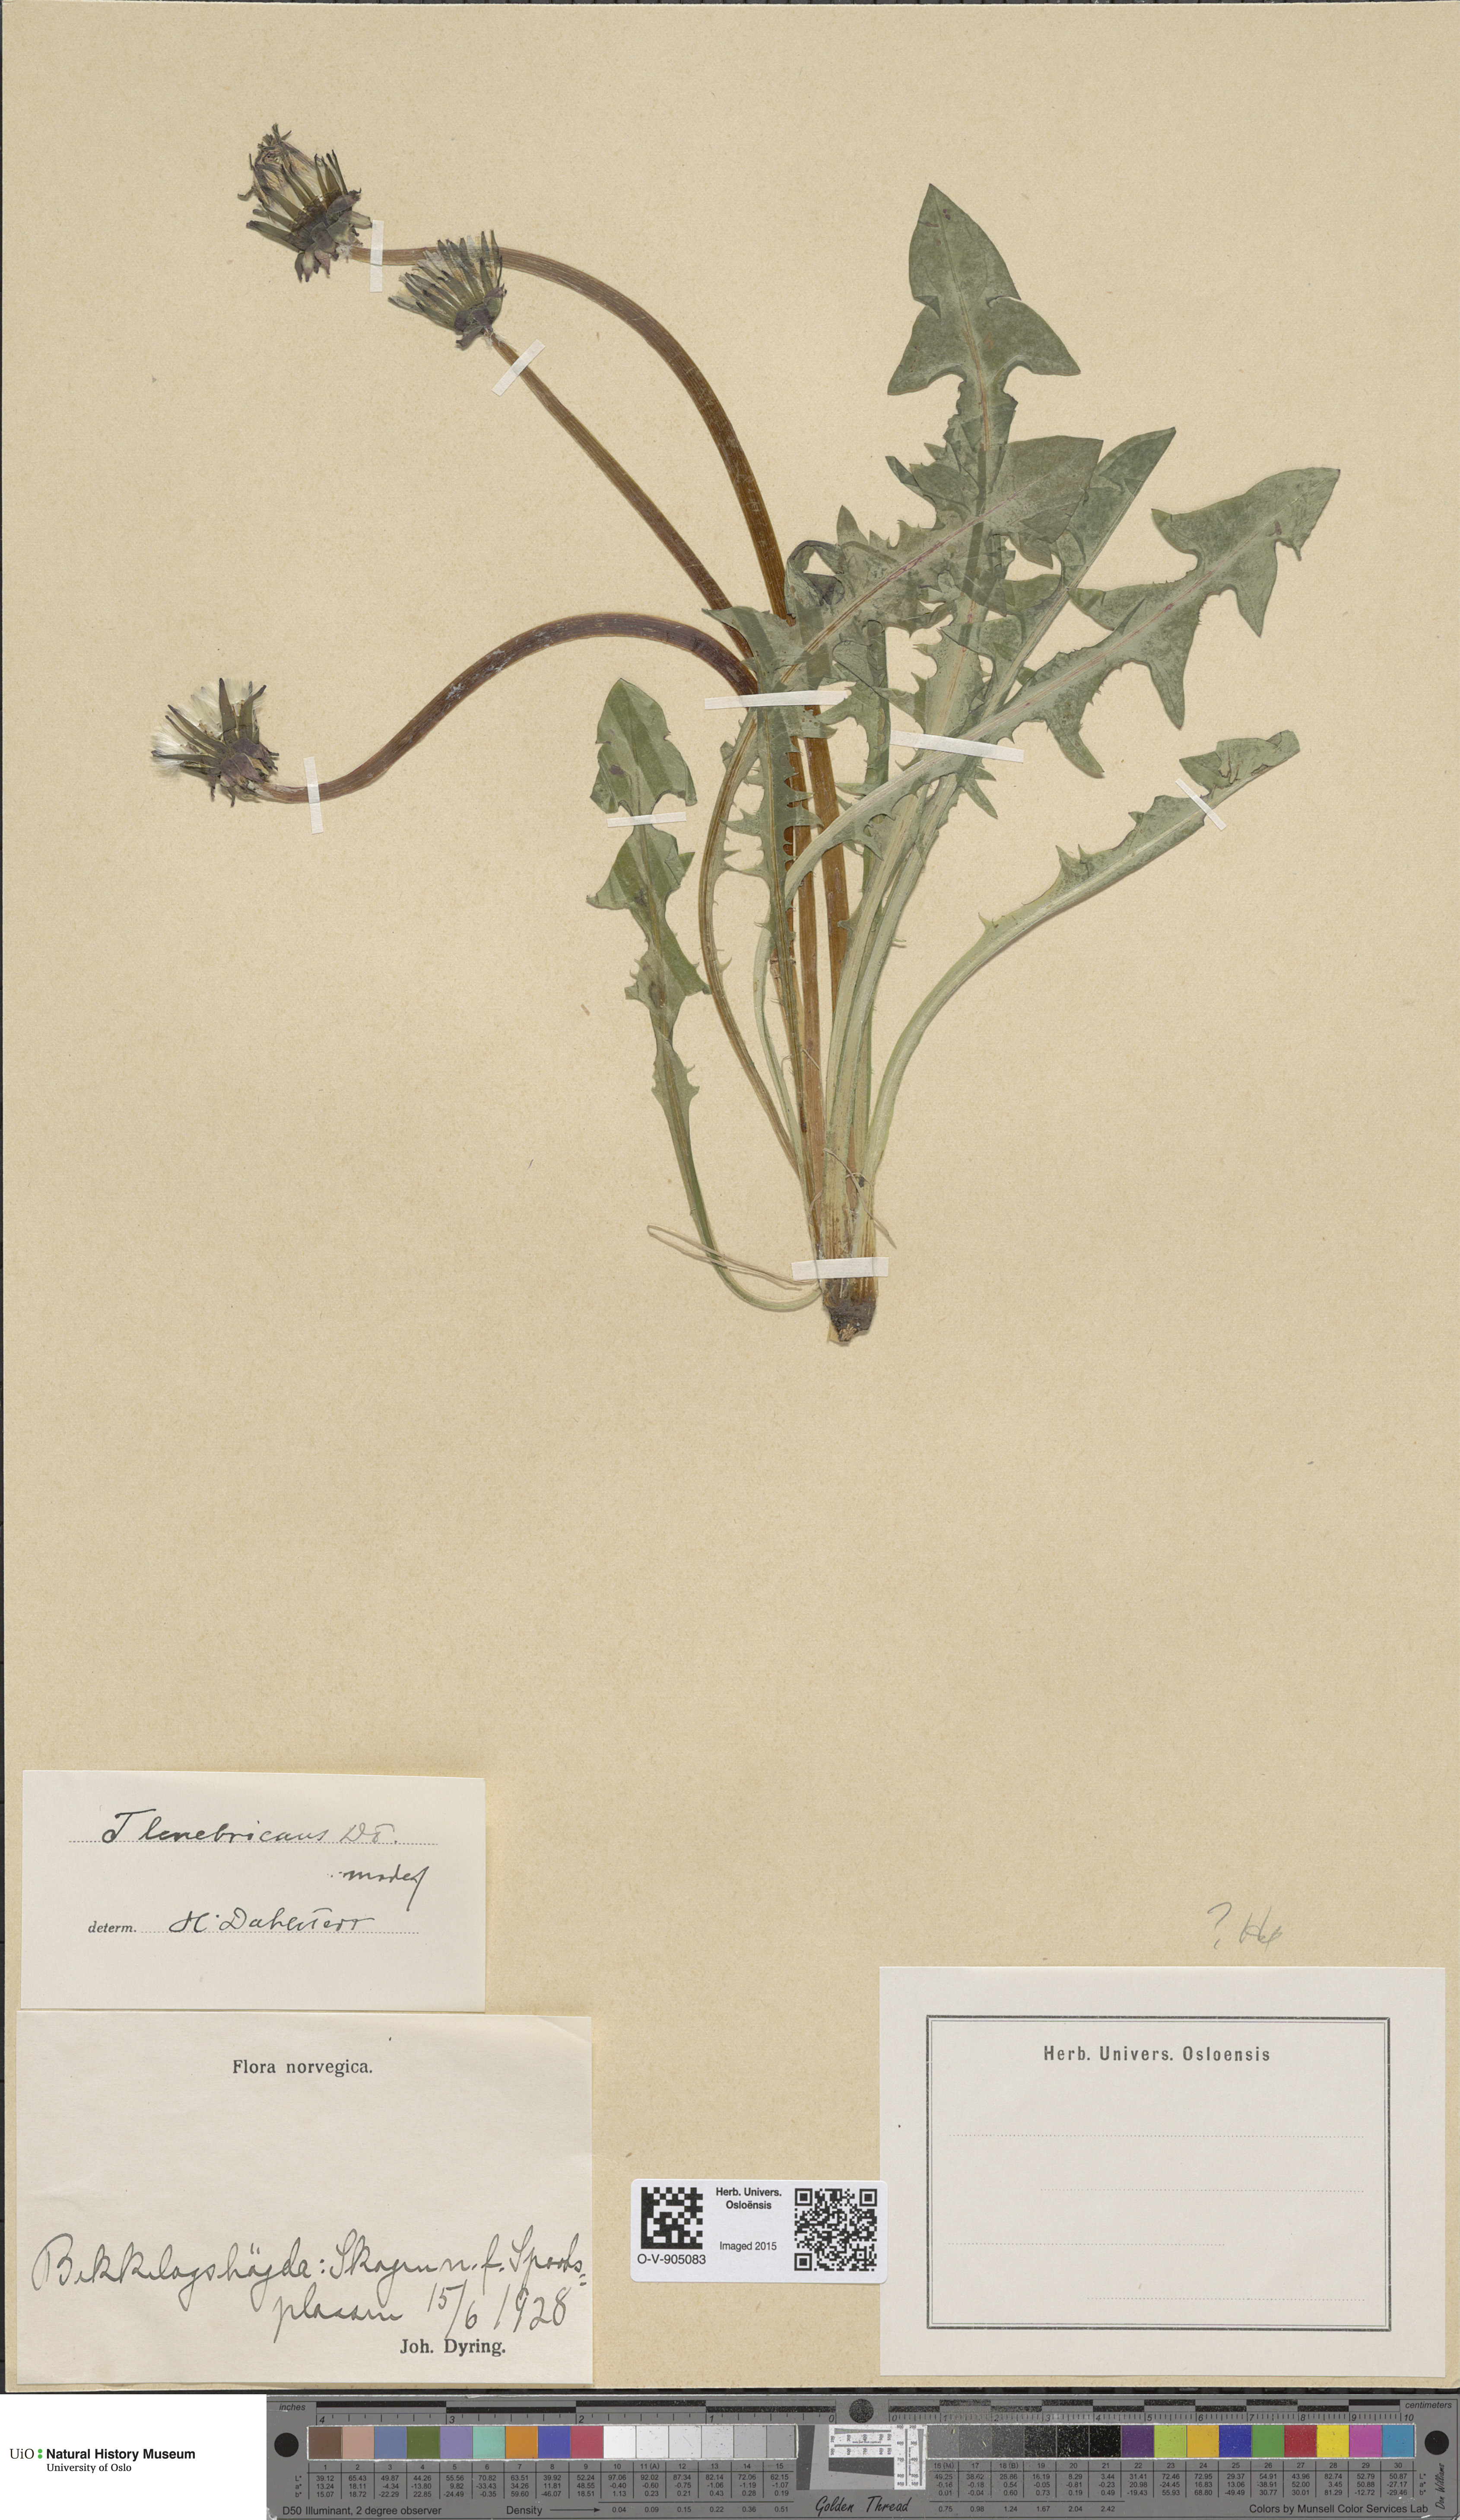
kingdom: Plantae
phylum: Tracheophyta
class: Magnoliopsida
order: Asterales
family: Asteraceae
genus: Taraxacum
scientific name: Taraxacum tenebricans
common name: Shiny-leaved dandelion
